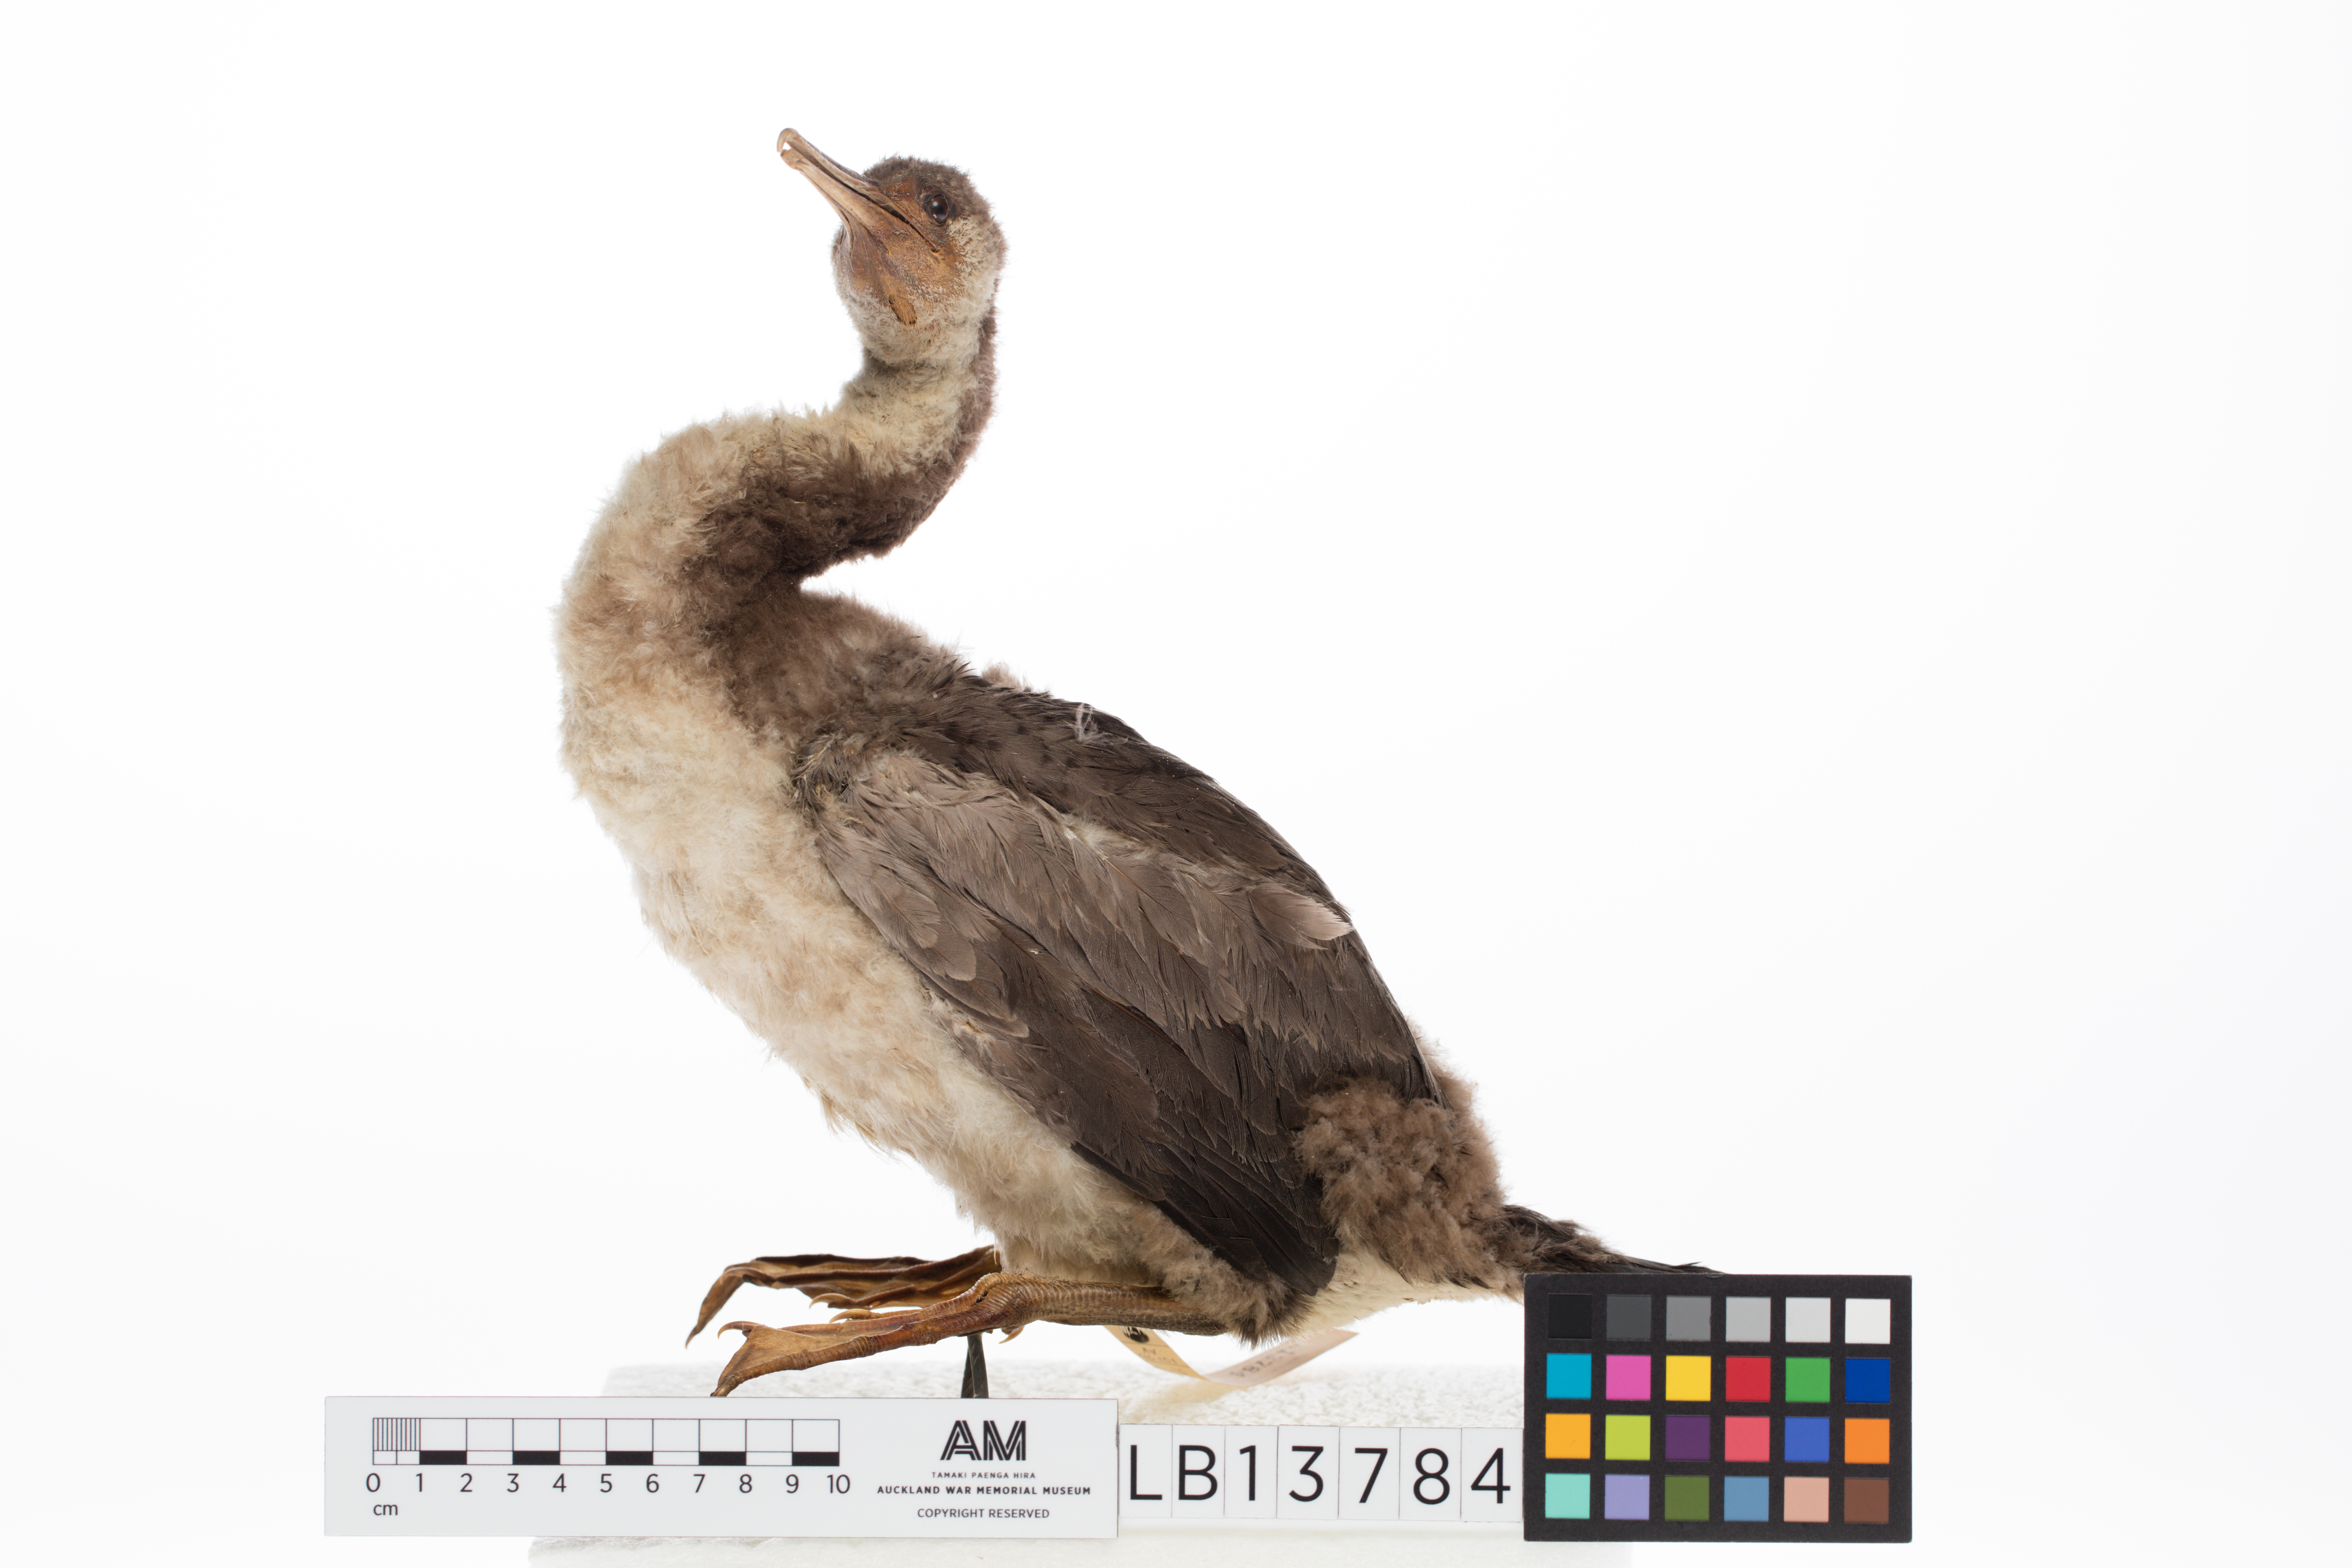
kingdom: Animalia
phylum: Chordata
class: Aves
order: Suliformes
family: Phalacrocoracidae
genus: Phalacrocorax
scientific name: Phalacrocorax punctatus
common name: Spotted shag
